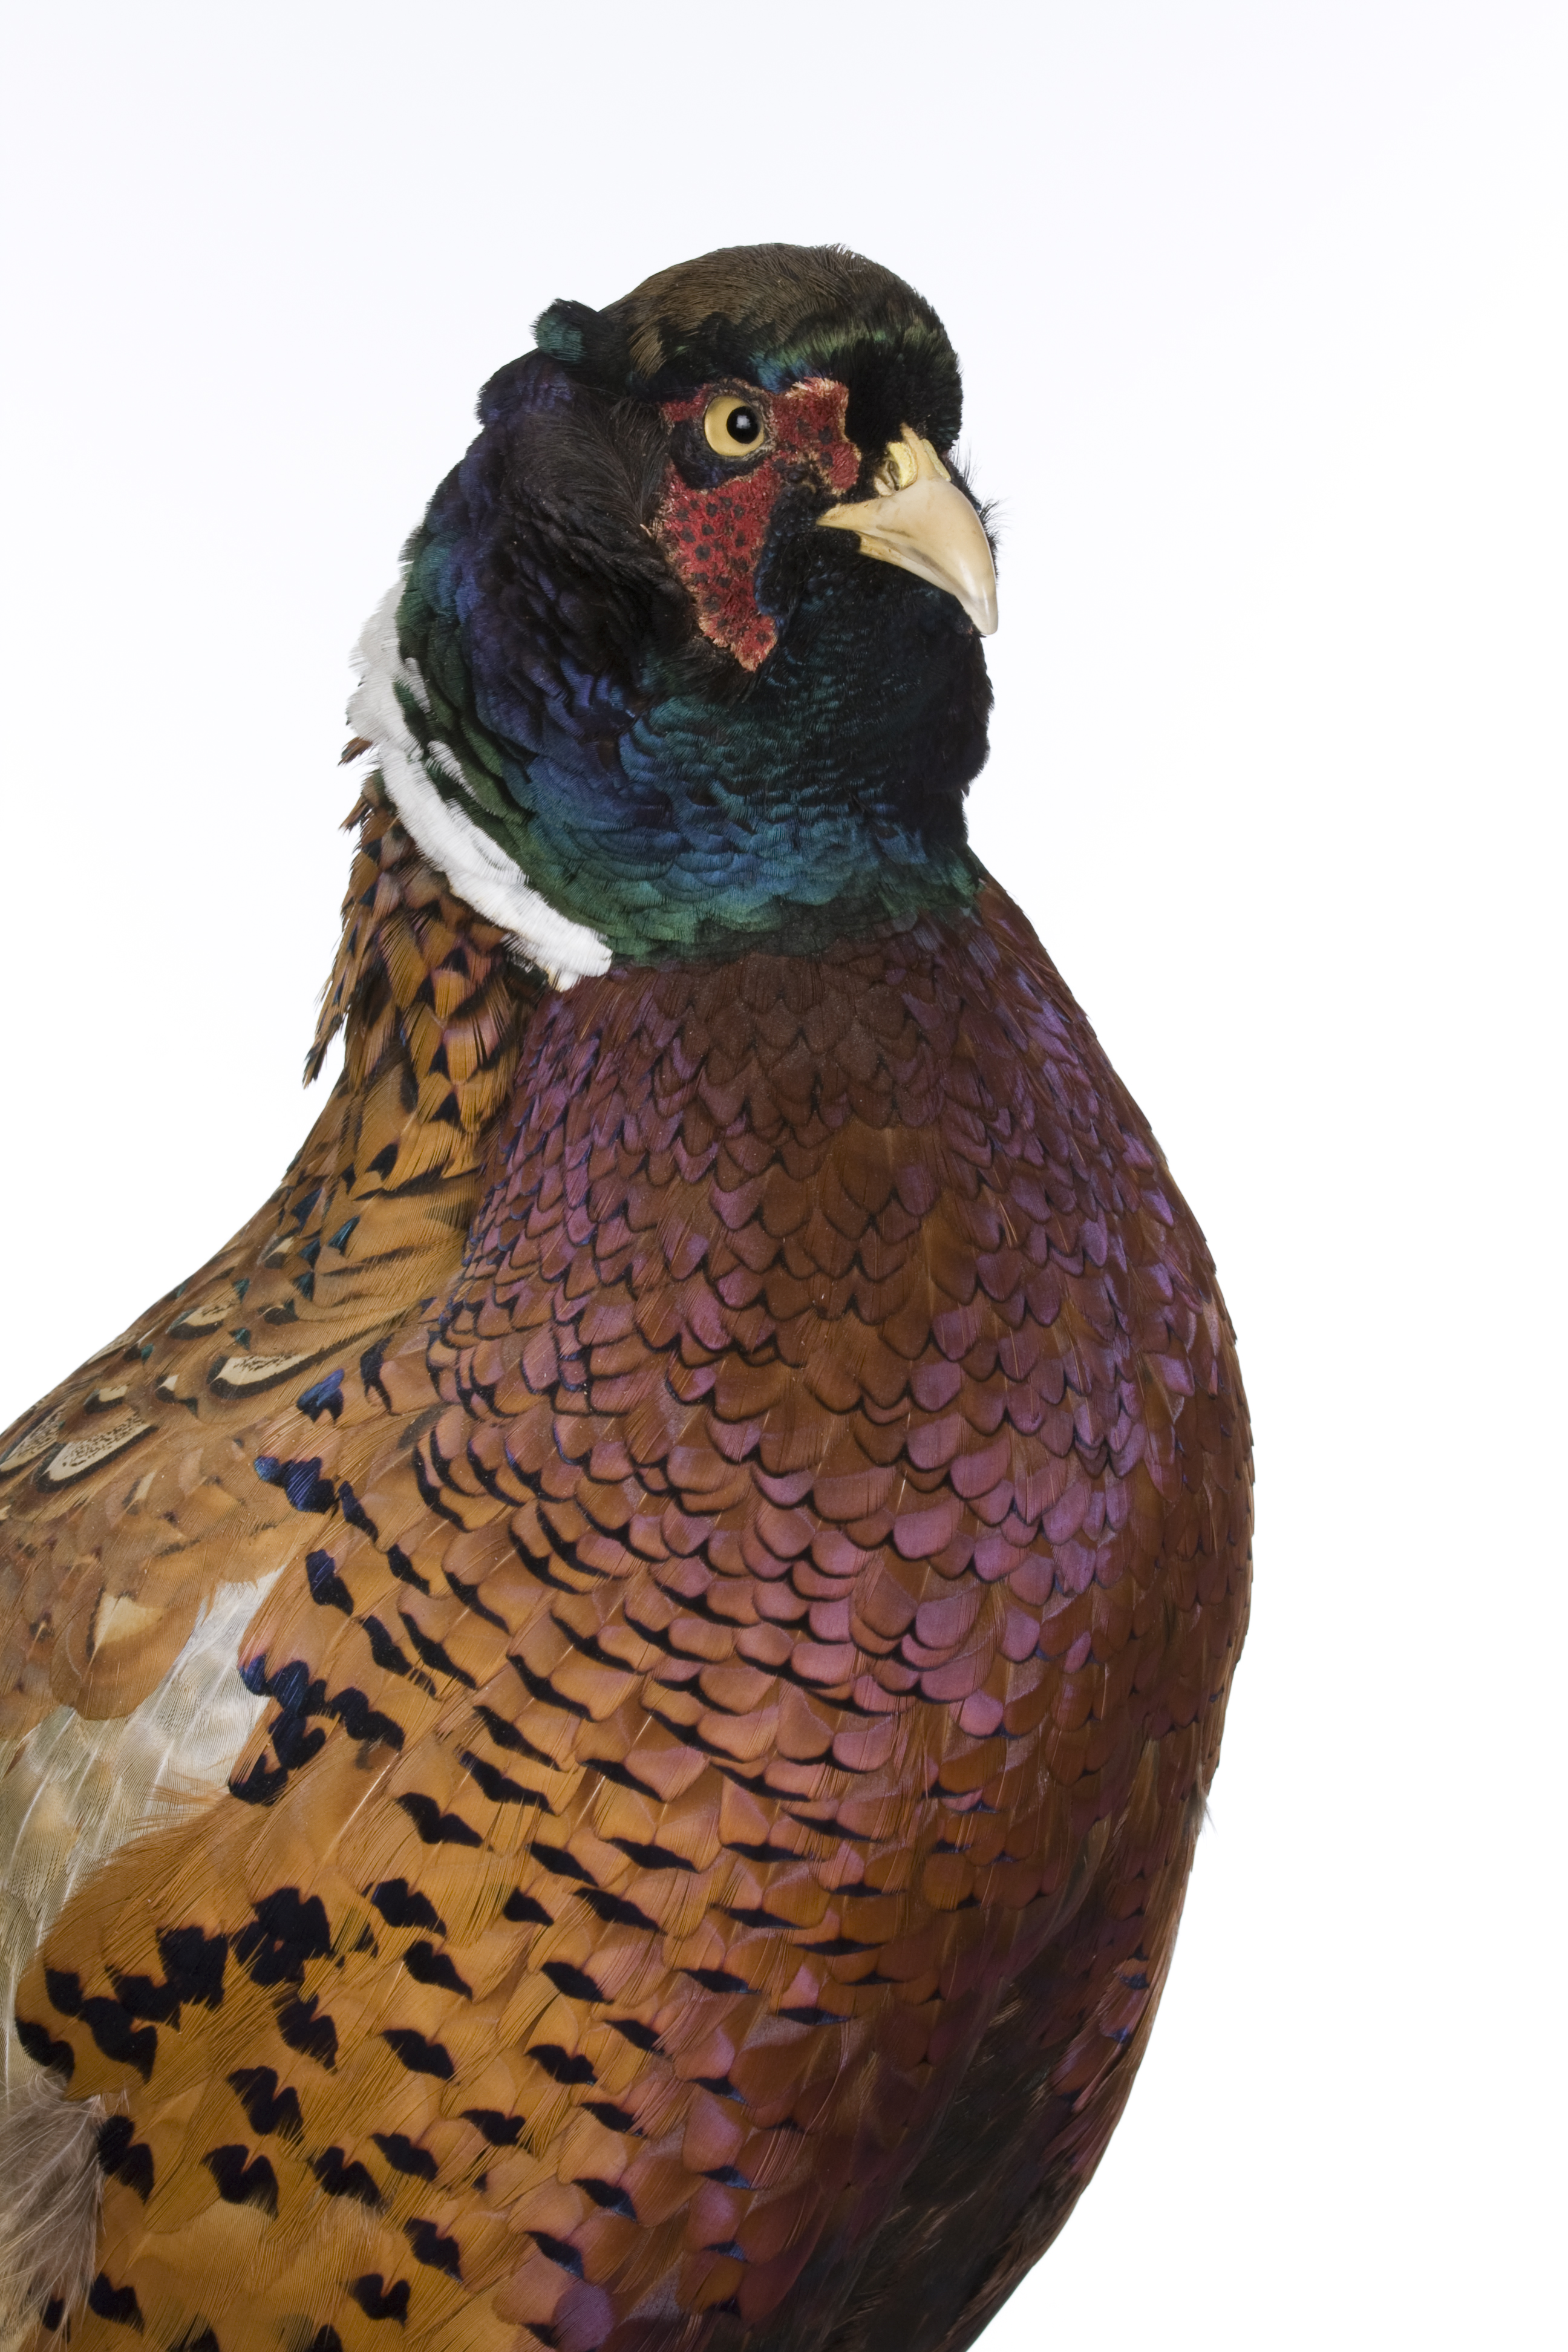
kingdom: Animalia
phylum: Chordata
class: Aves
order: Galliformes
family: Phasianidae
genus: Phasianus
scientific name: Phasianus colchicus
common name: Common pheasant
